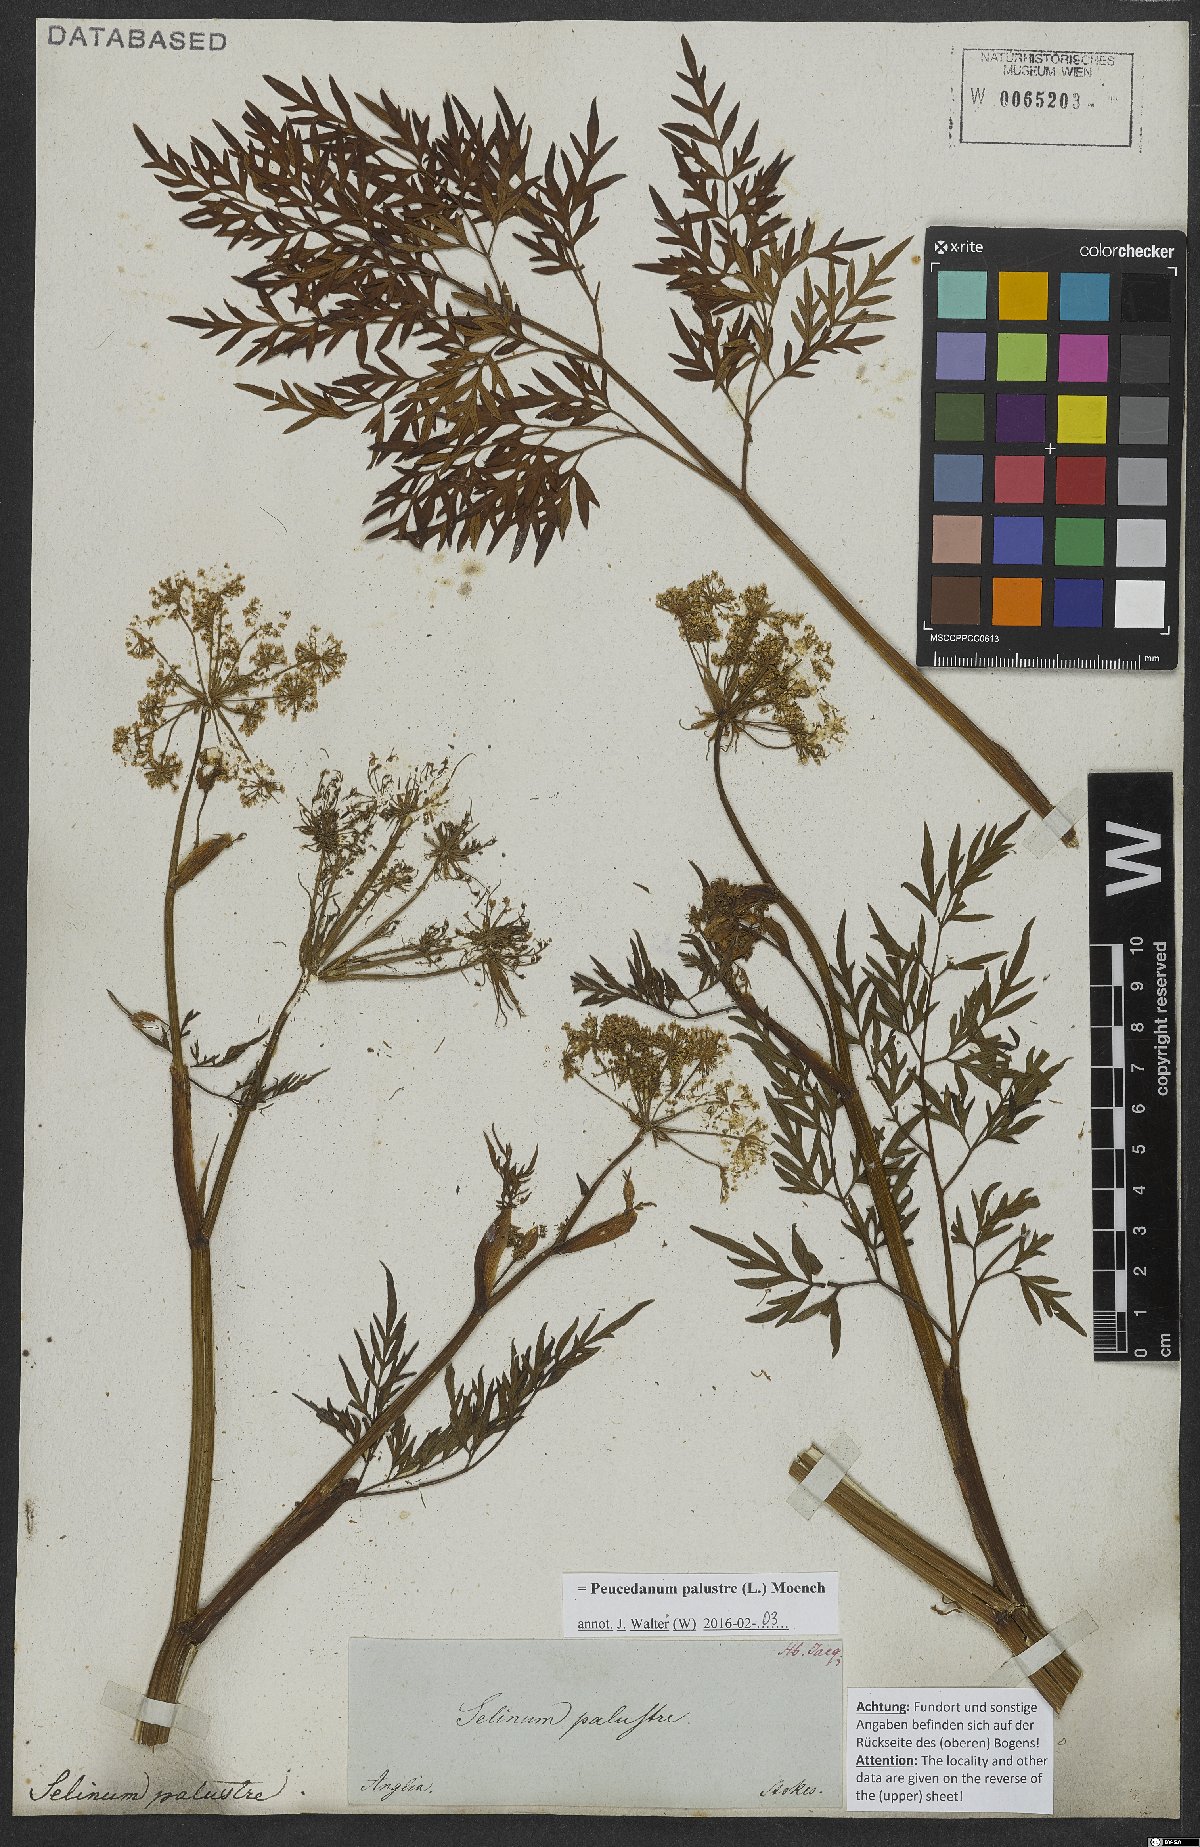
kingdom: Plantae
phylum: Tracheophyta
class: Magnoliopsida
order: Apiales
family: Apiaceae
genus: Thysselinum
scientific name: Thysselinum palustre
